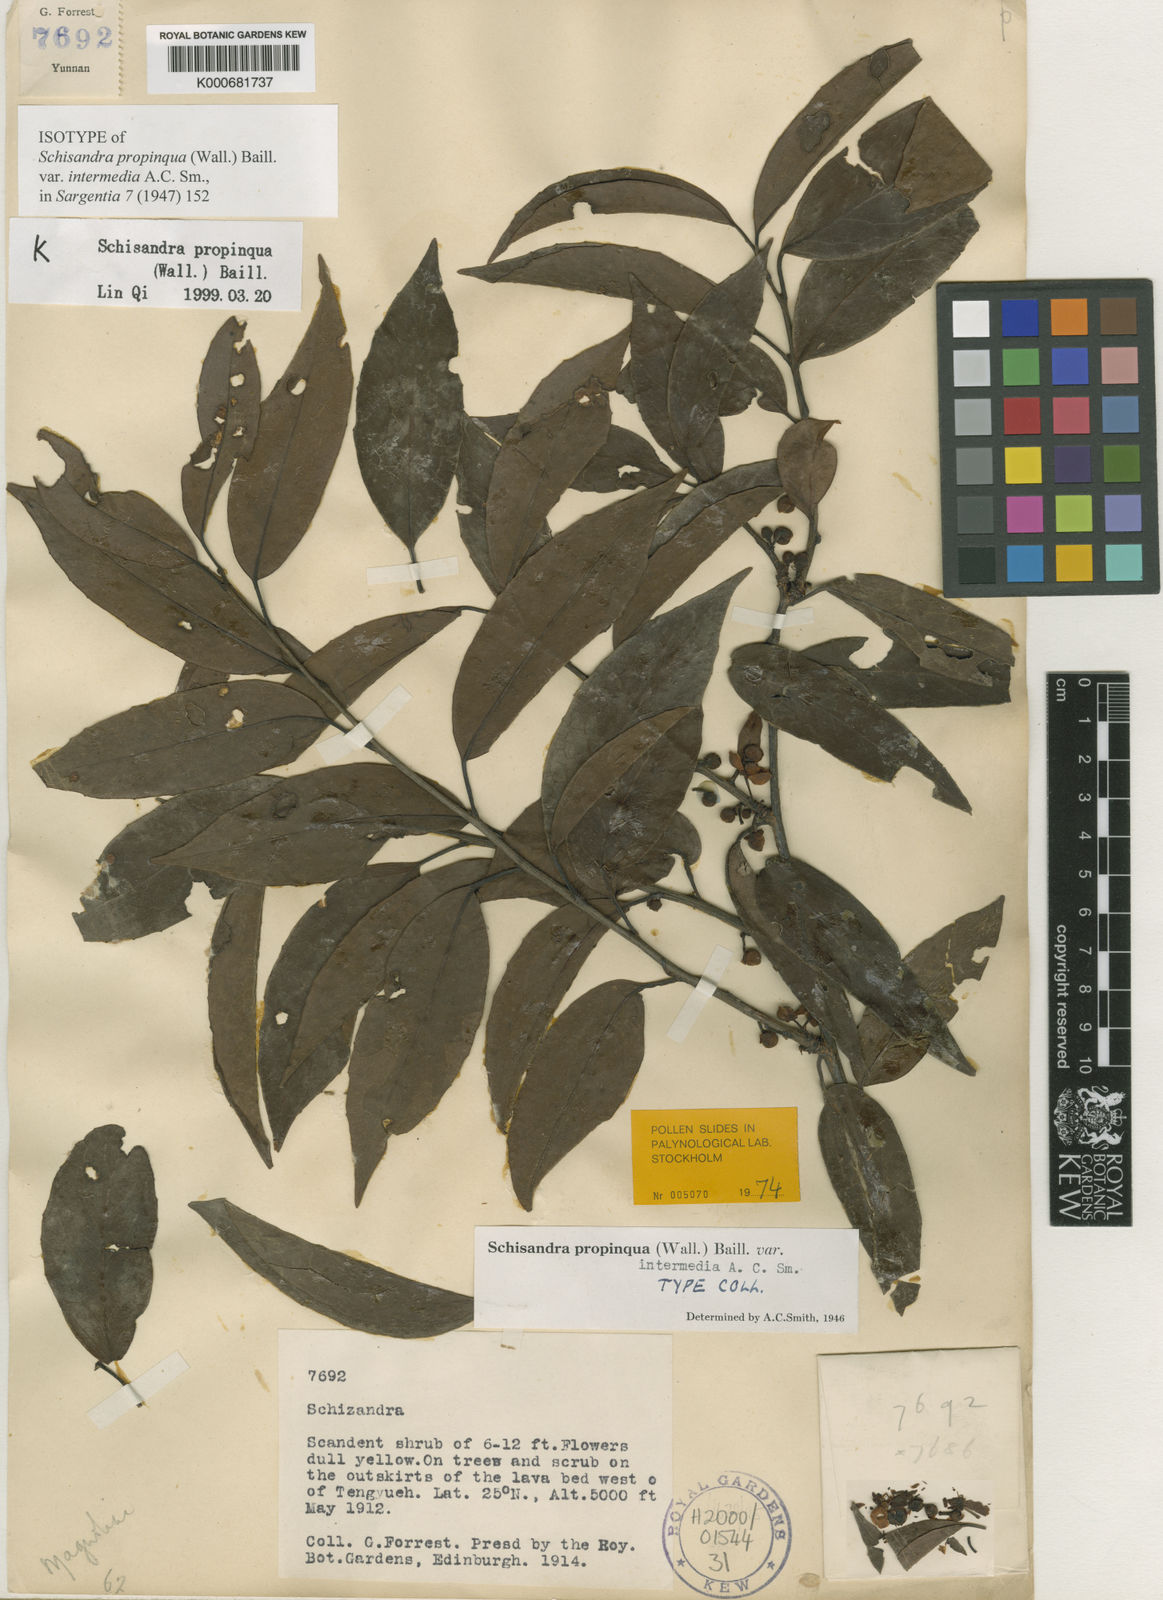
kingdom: Plantae
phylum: Tracheophyta
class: Magnoliopsida
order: Austrobaileyales
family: Schisandraceae
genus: Schisandra
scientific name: Schisandra propinqua
